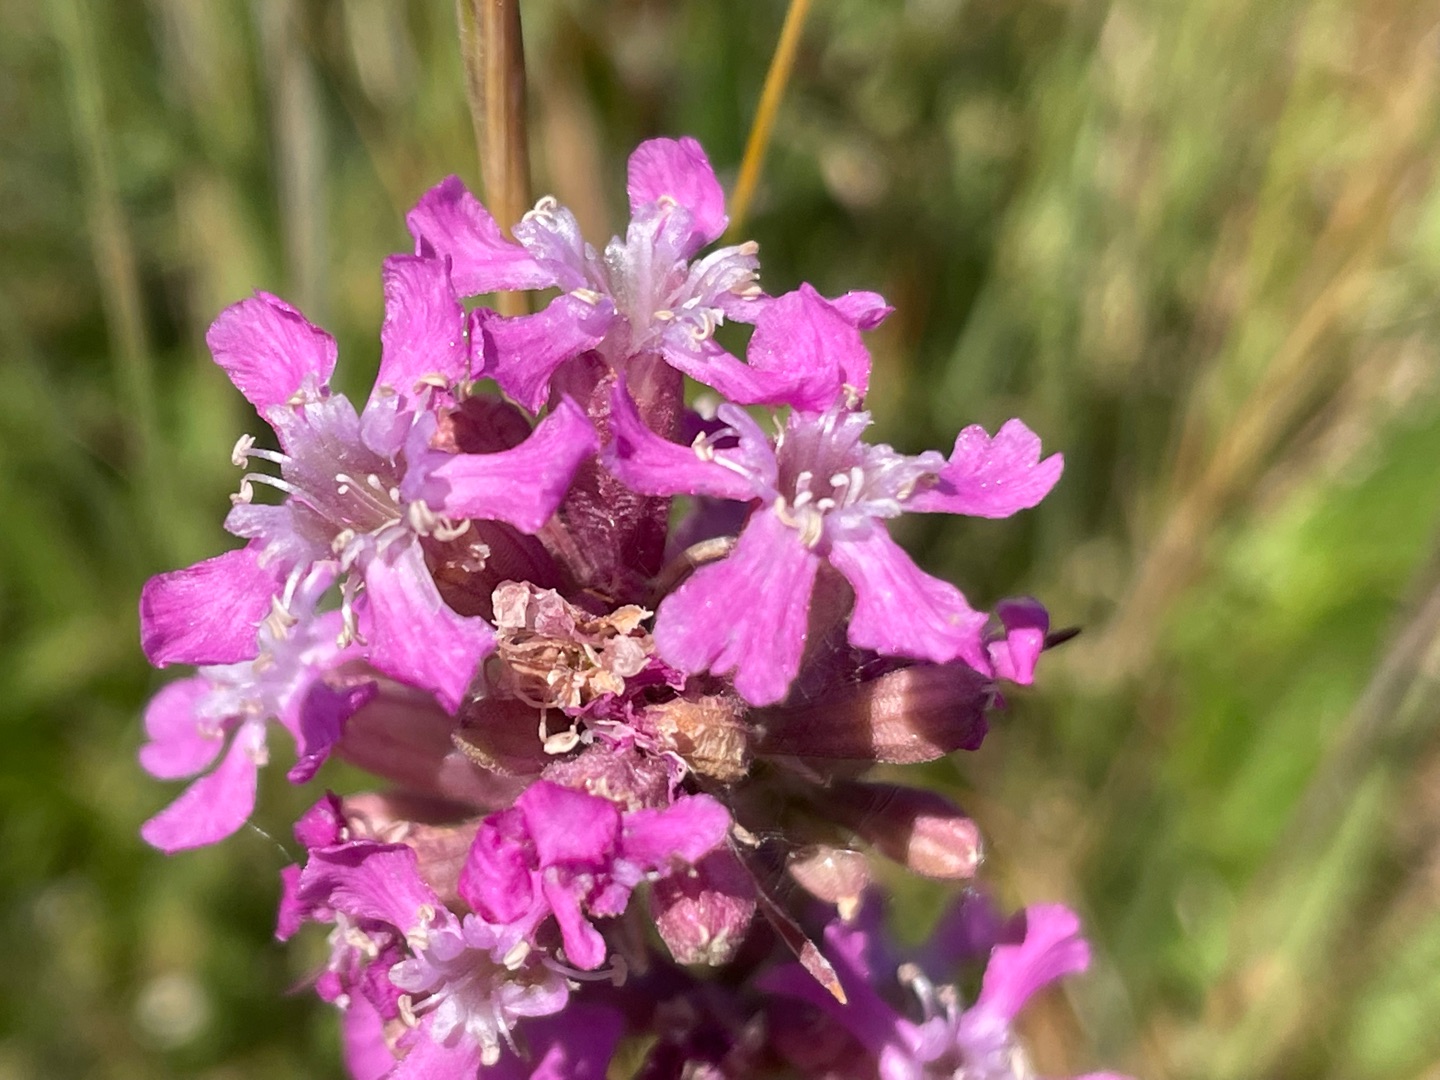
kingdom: Plantae
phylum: Tracheophyta
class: Magnoliopsida
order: Caryophyllales
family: Caryophyllaceae
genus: Viscaria
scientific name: Viscaria vulgaris
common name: Tjærenellike
